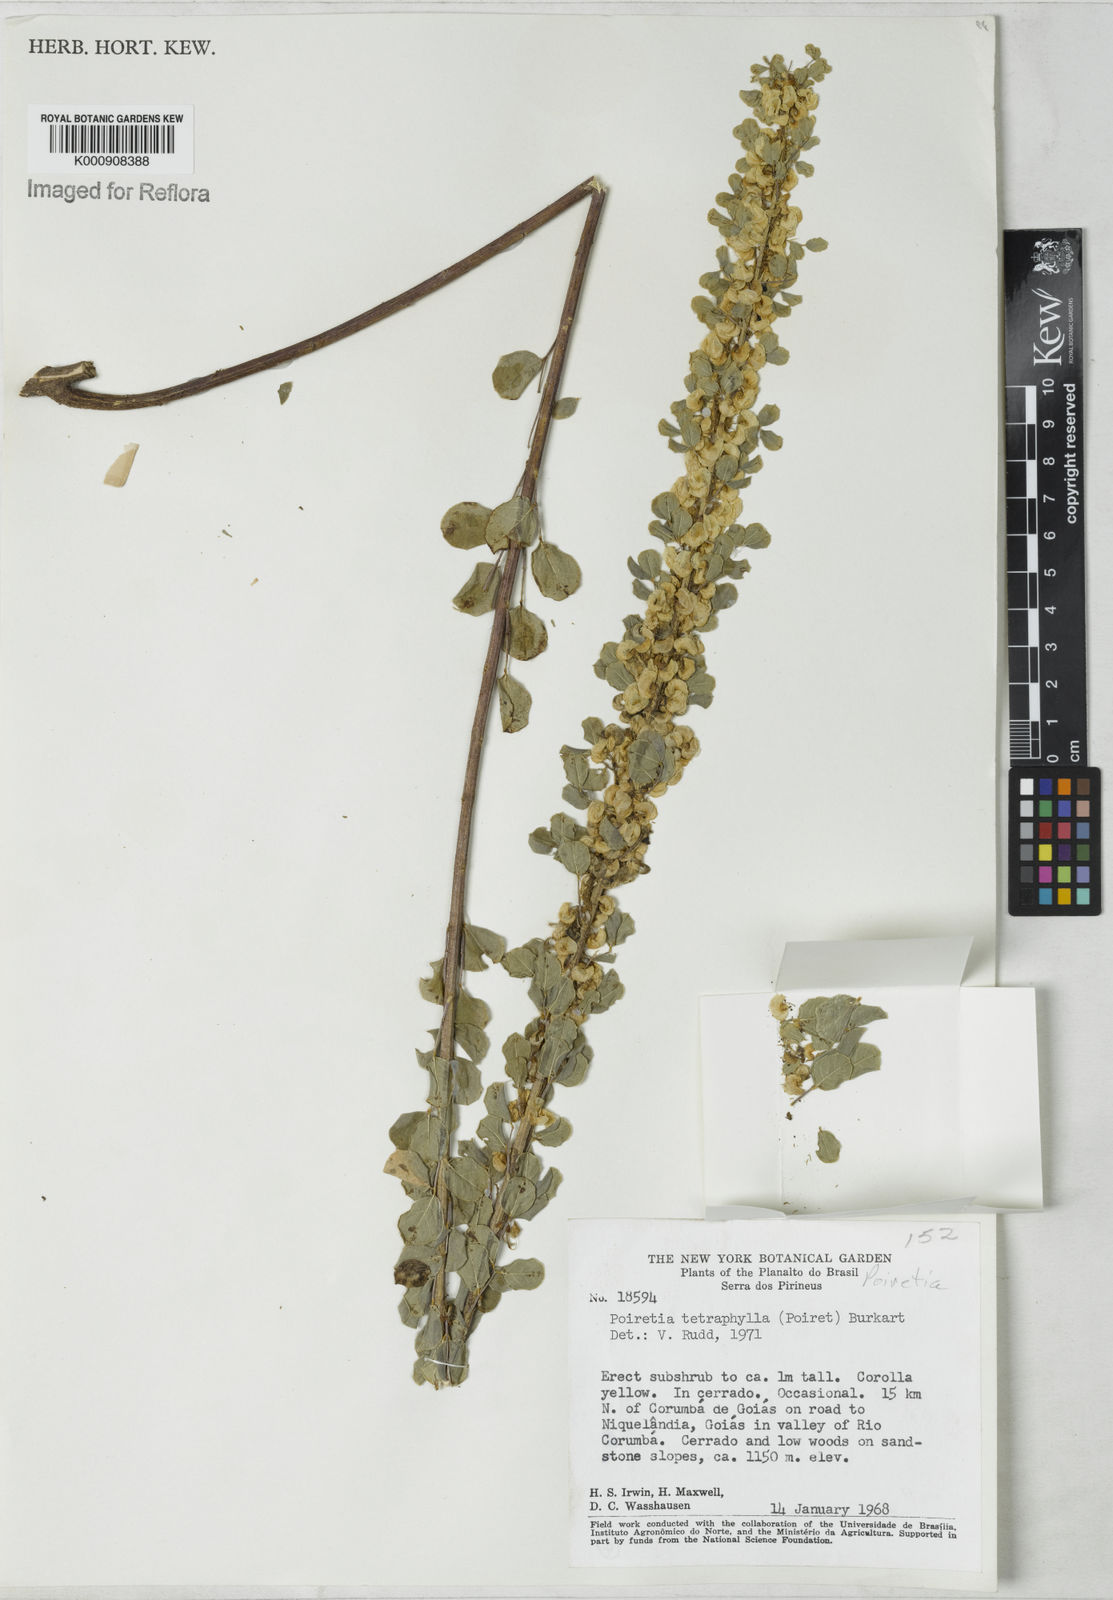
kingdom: Plantae
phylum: Tracheophyta
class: Magnoliopsida
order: Fabales
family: Fabaceae
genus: Poiretia
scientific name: Poiretia tetraphylla
